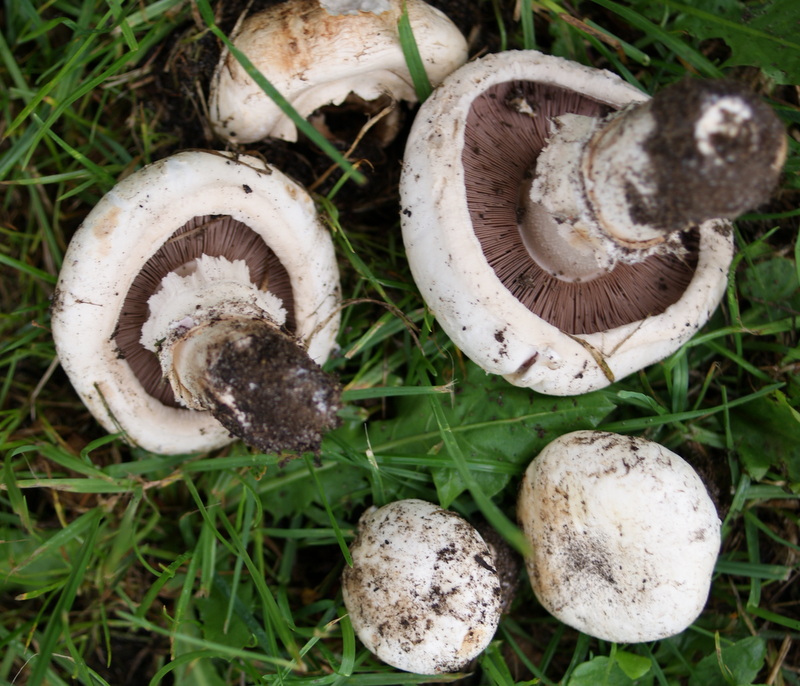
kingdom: Fungi
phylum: Basidiomycota
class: Agaricomycetes
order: Agaricales
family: Agaricaceae
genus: Agaricus
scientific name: Agaricus bitorquis
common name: vej-champignon
